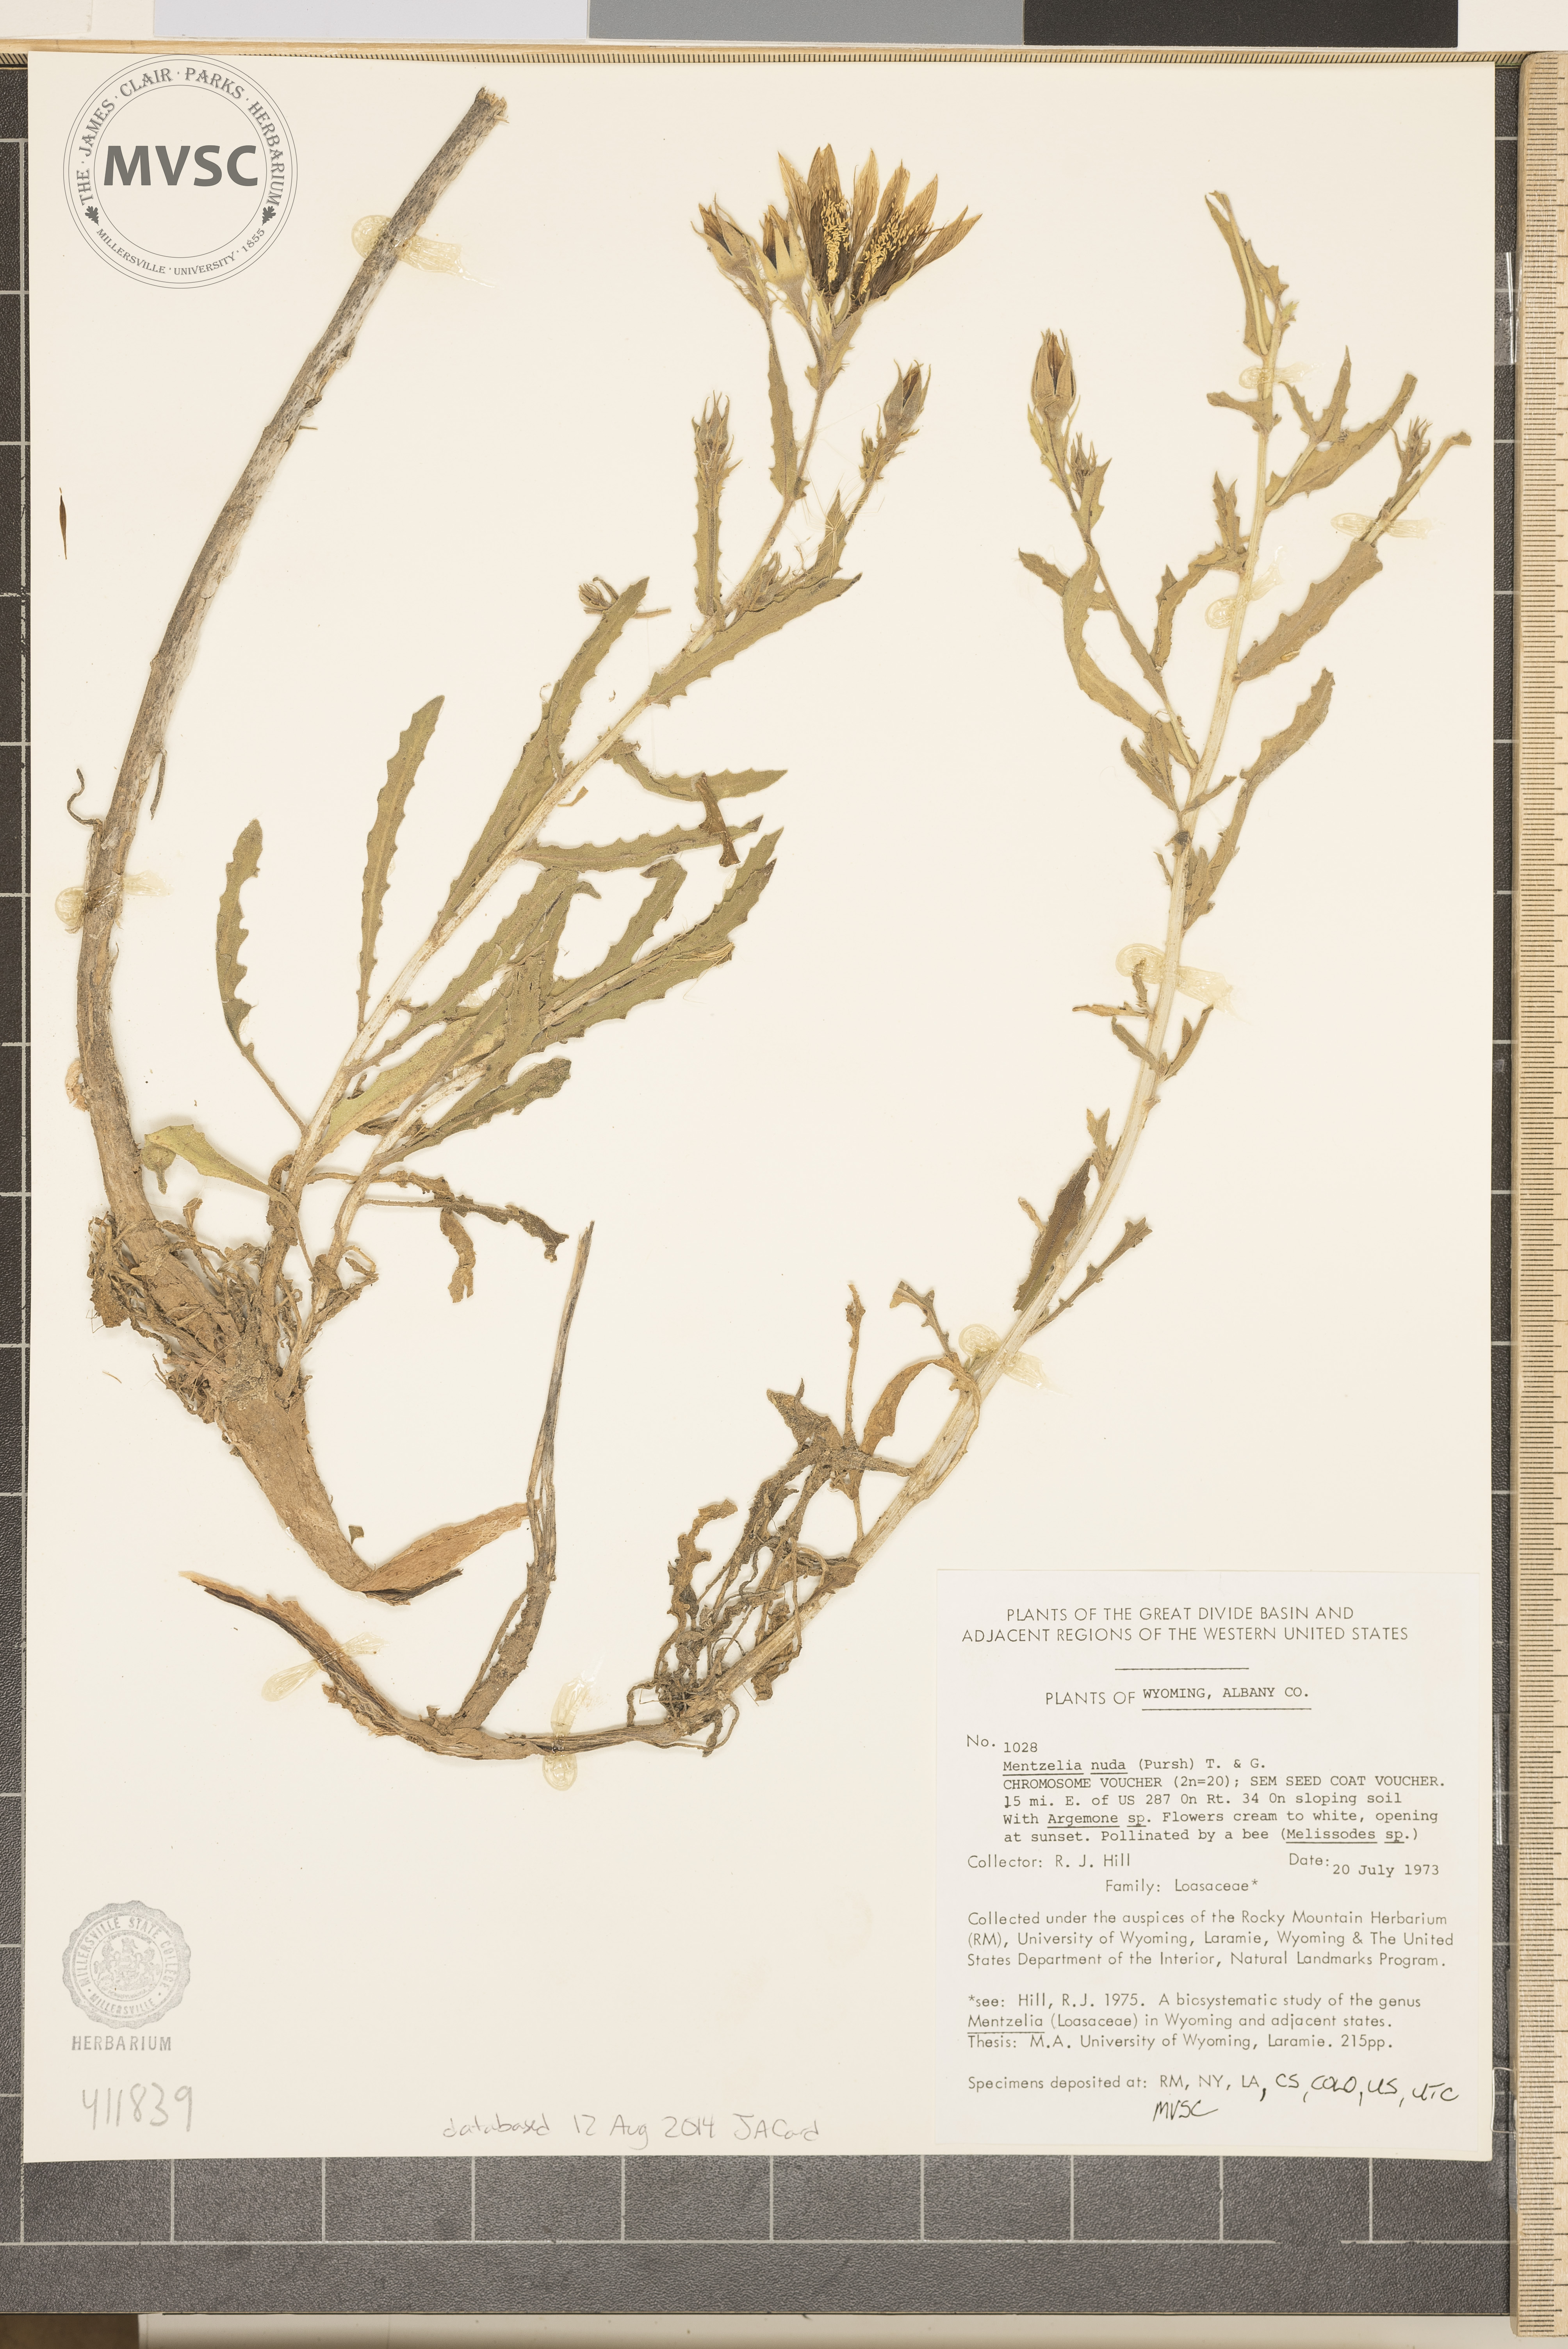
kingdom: Plantae
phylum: Tracheophyta
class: Magnoliopsida
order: Cornales
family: Loasaceae
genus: Mentzelia
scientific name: Mentzelia nuda
